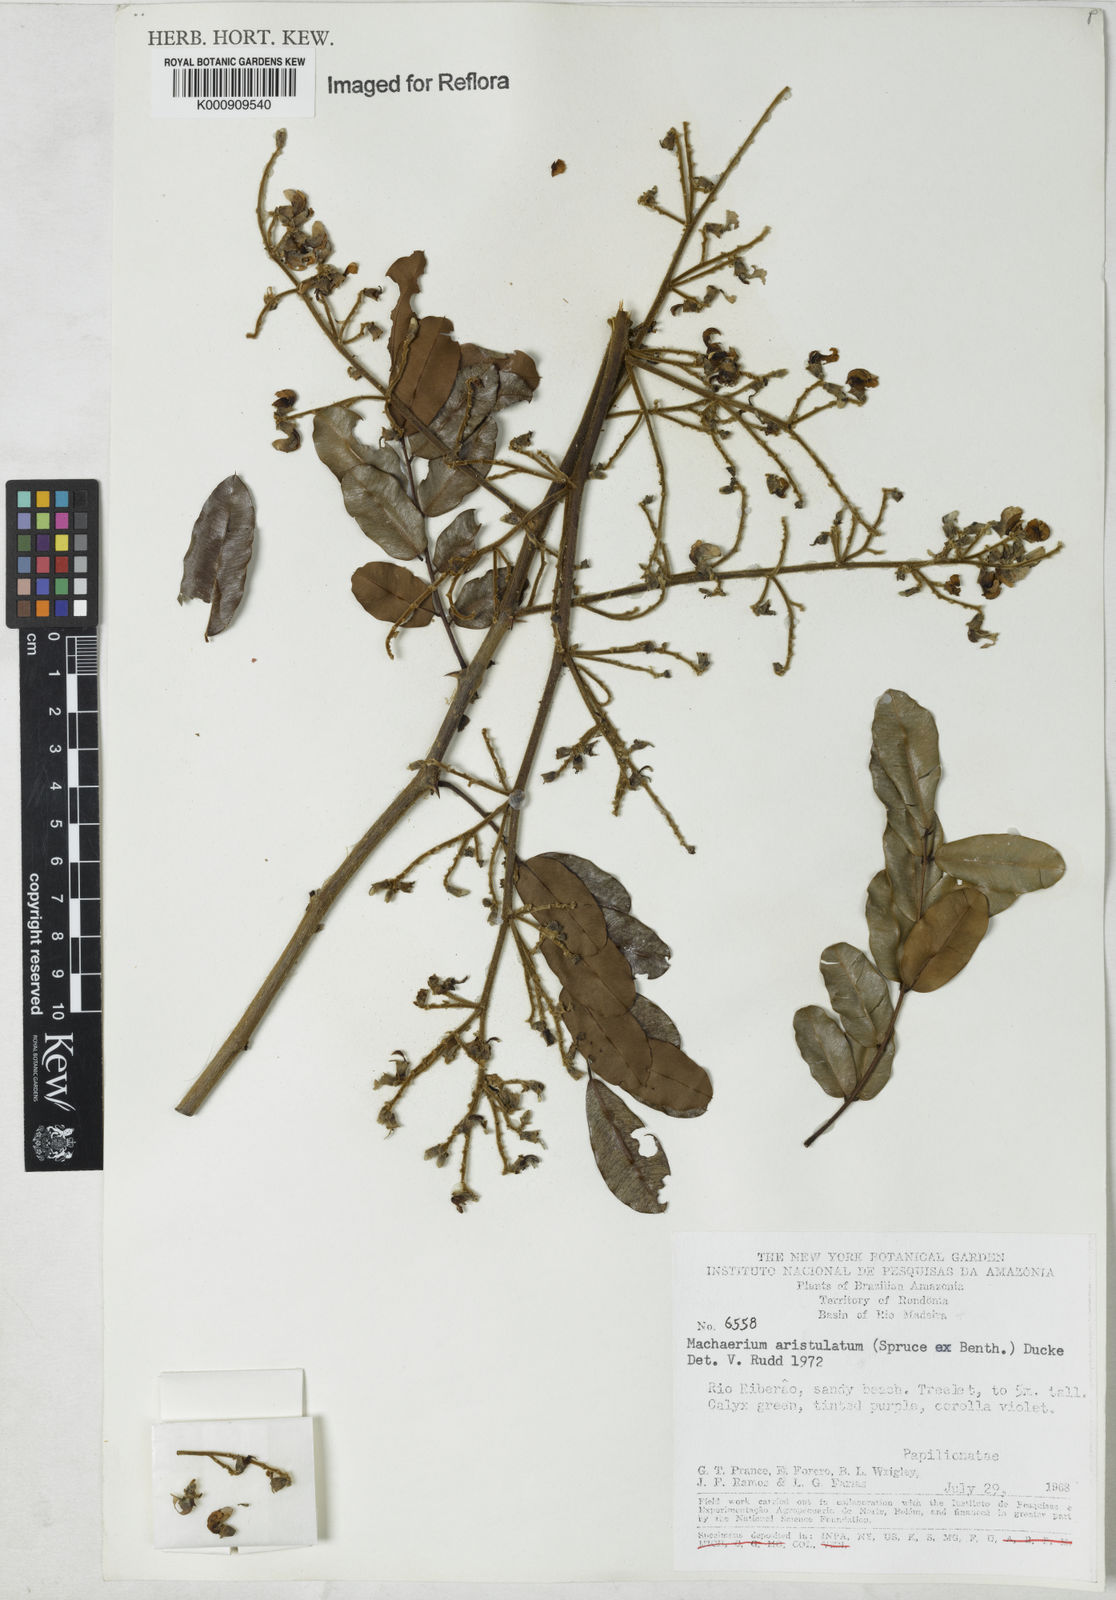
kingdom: Plantae
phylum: Tracheophyta
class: Magnoliopsida
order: Fabales
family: Fabaceae
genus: Machaerium
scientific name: Machaerium aristulatum
